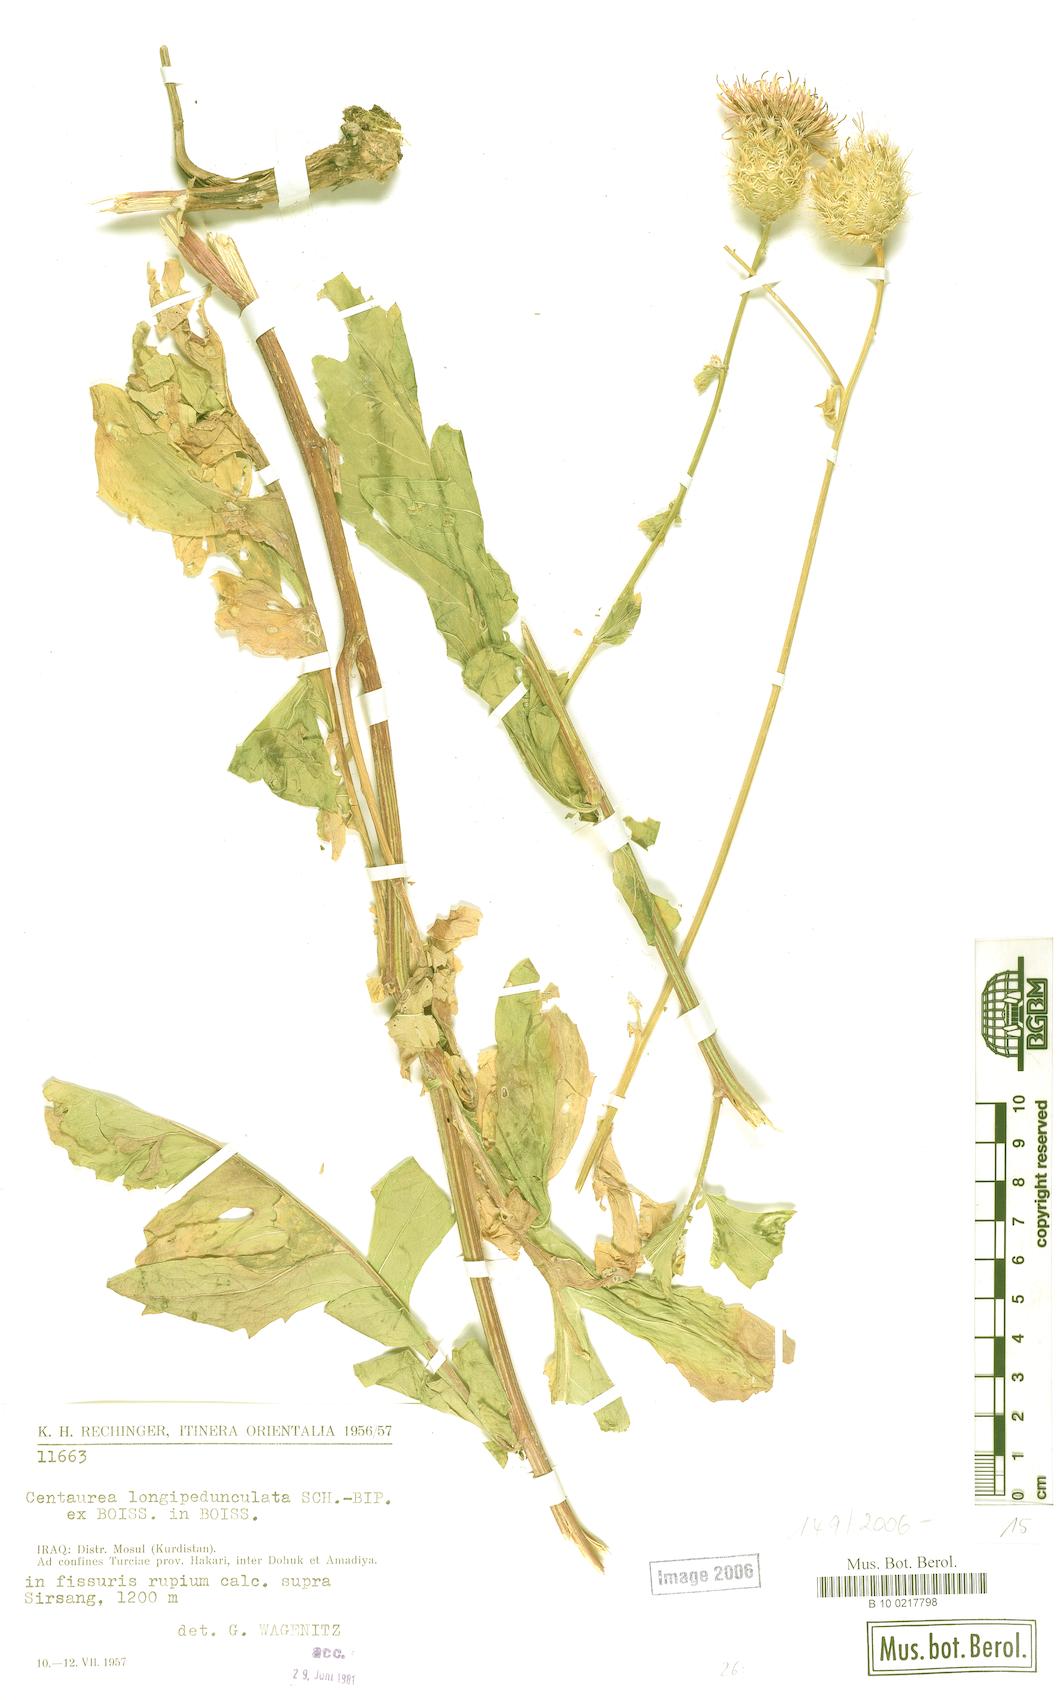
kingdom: Plantae
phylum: Tracheophyta
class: Magnoliopsida
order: Asterales
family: Asteraceae
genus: Centaurea
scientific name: Centaurea longepedunculata
